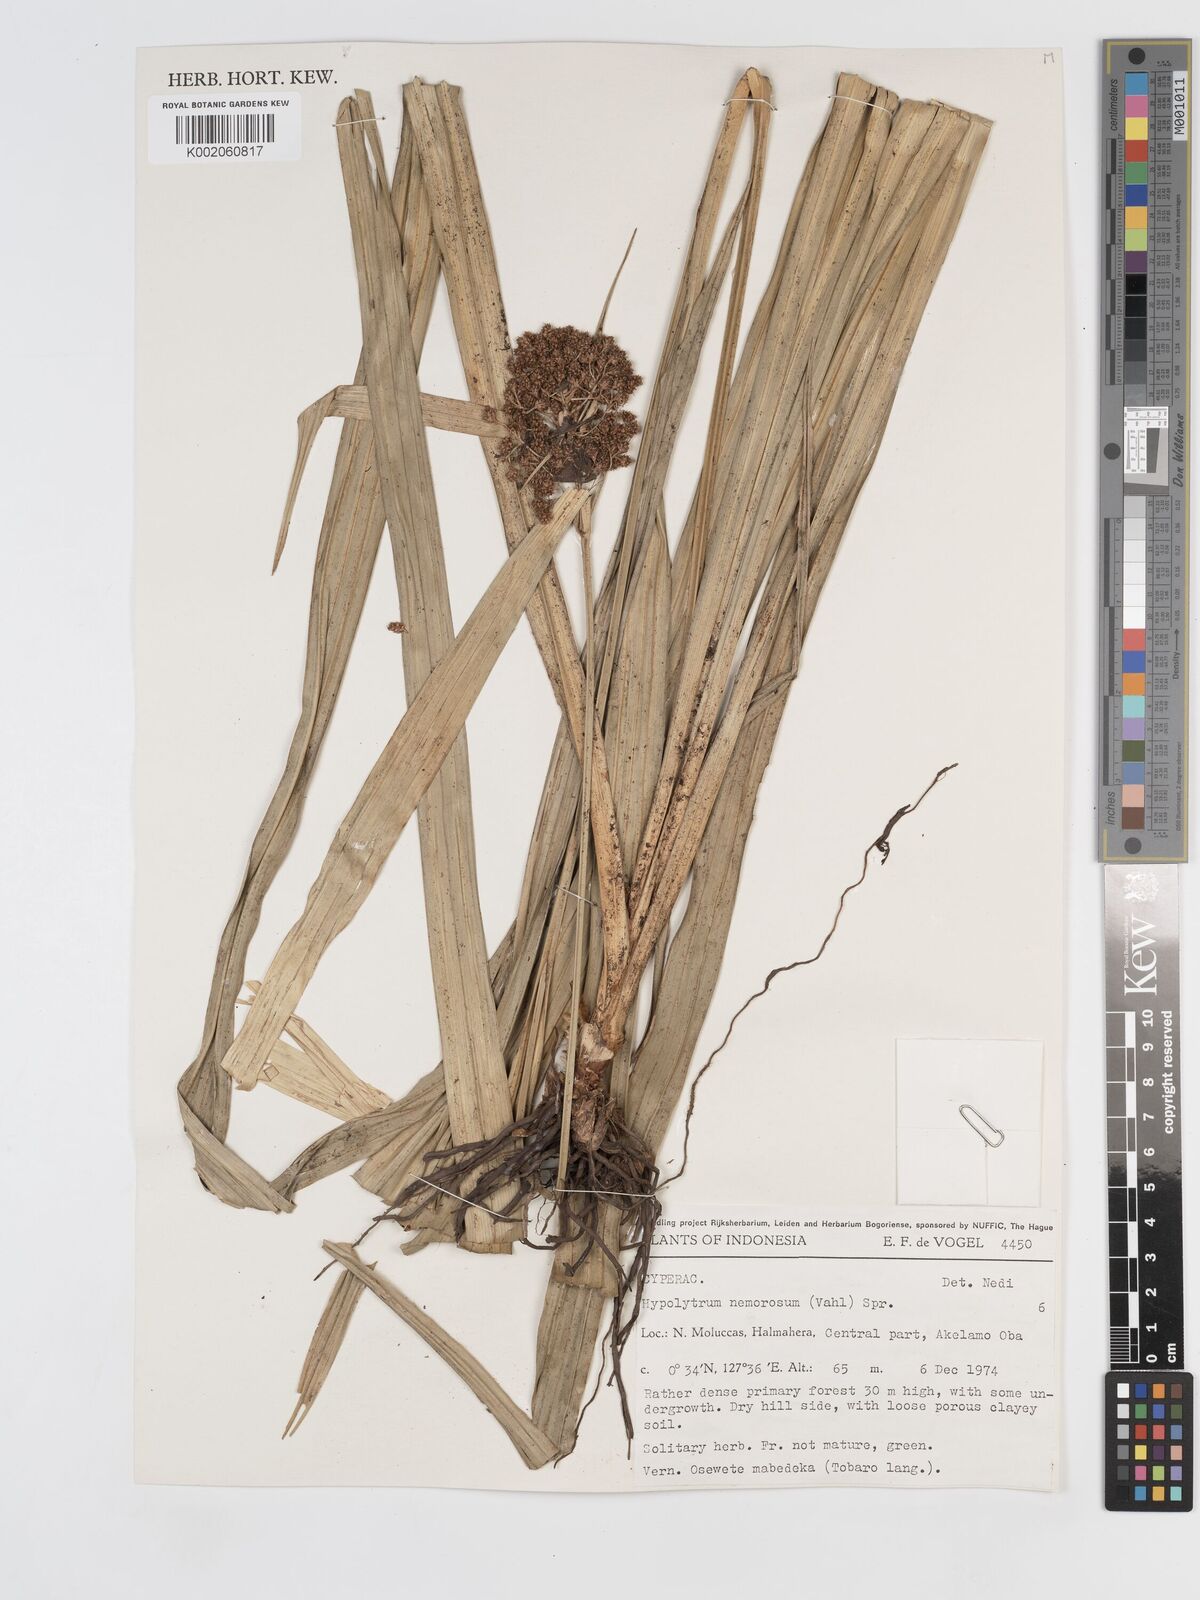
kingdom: Plantae
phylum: Tracheophyta
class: Liliopsida
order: Poales
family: Cyperaceae
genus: Hypolytrum
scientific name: Hypolytrum nemorum
